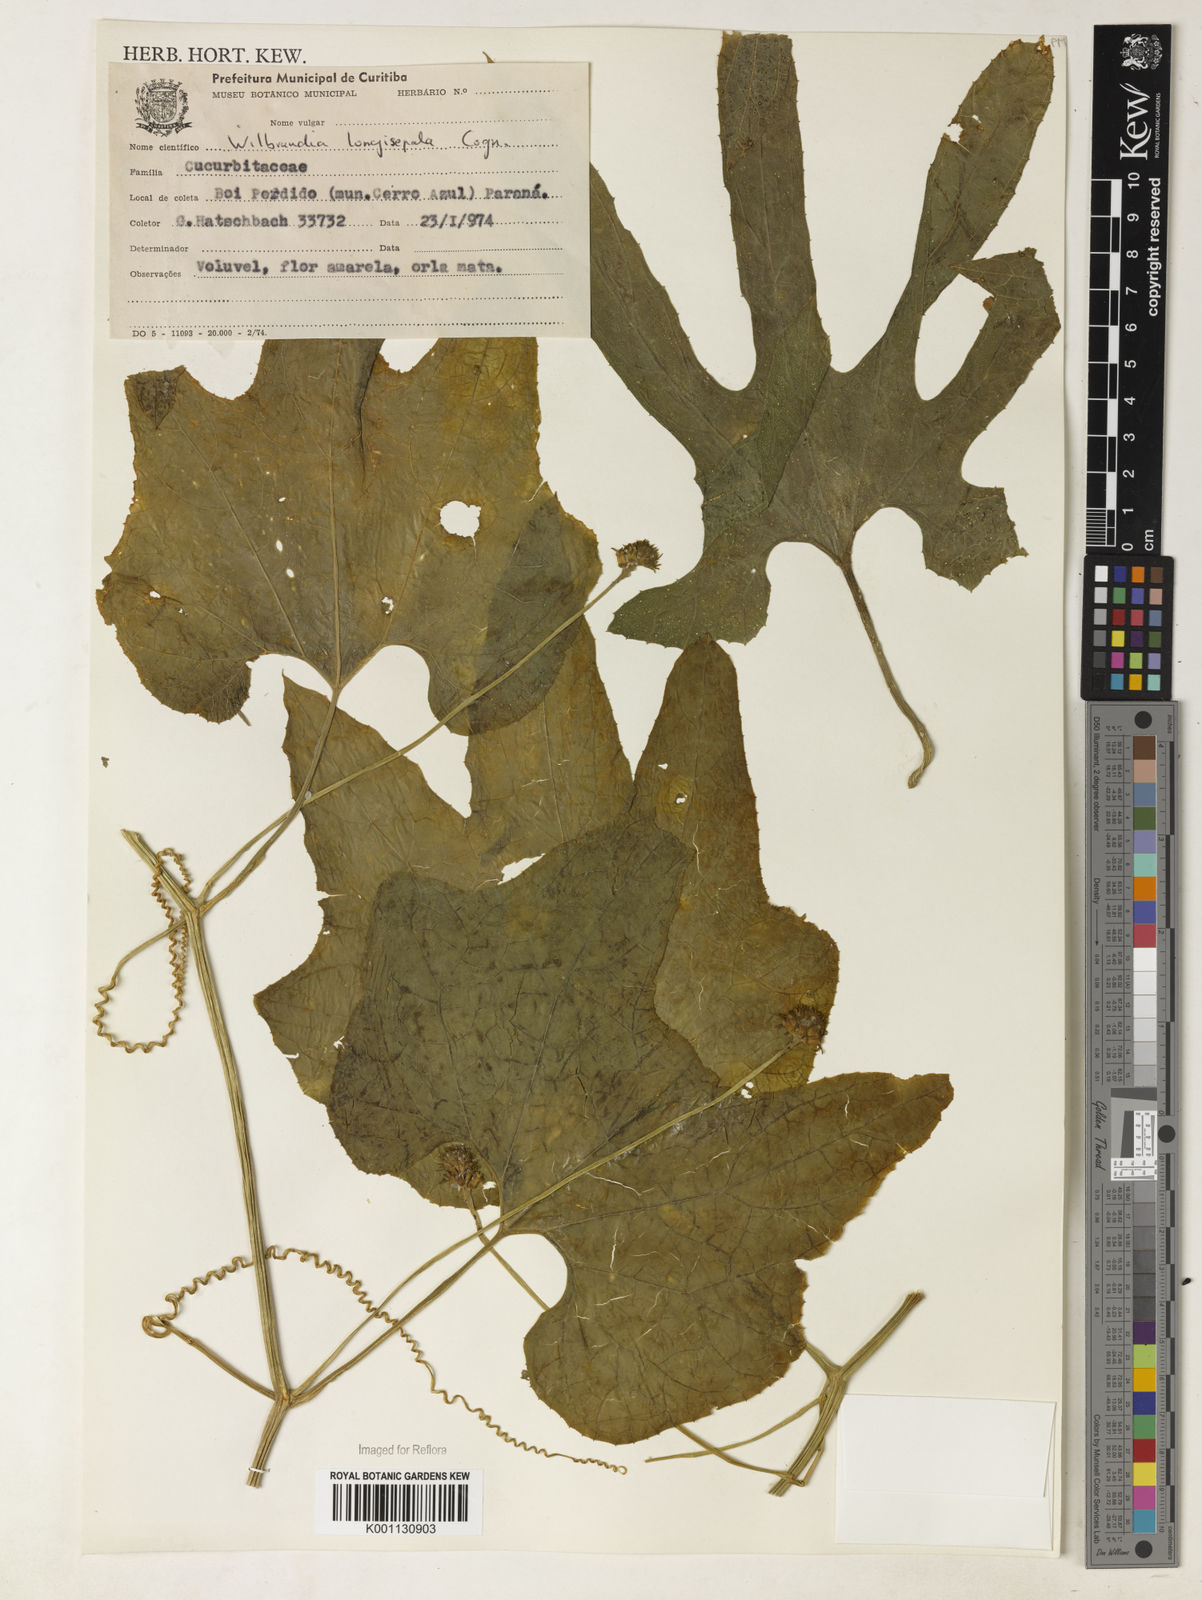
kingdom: Plantae
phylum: Tracheophyta
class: Magnoliopsida
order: Cucurbitales
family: Cucurbitaceae
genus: Wilbrandia
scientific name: Wilbrandia longisepala
